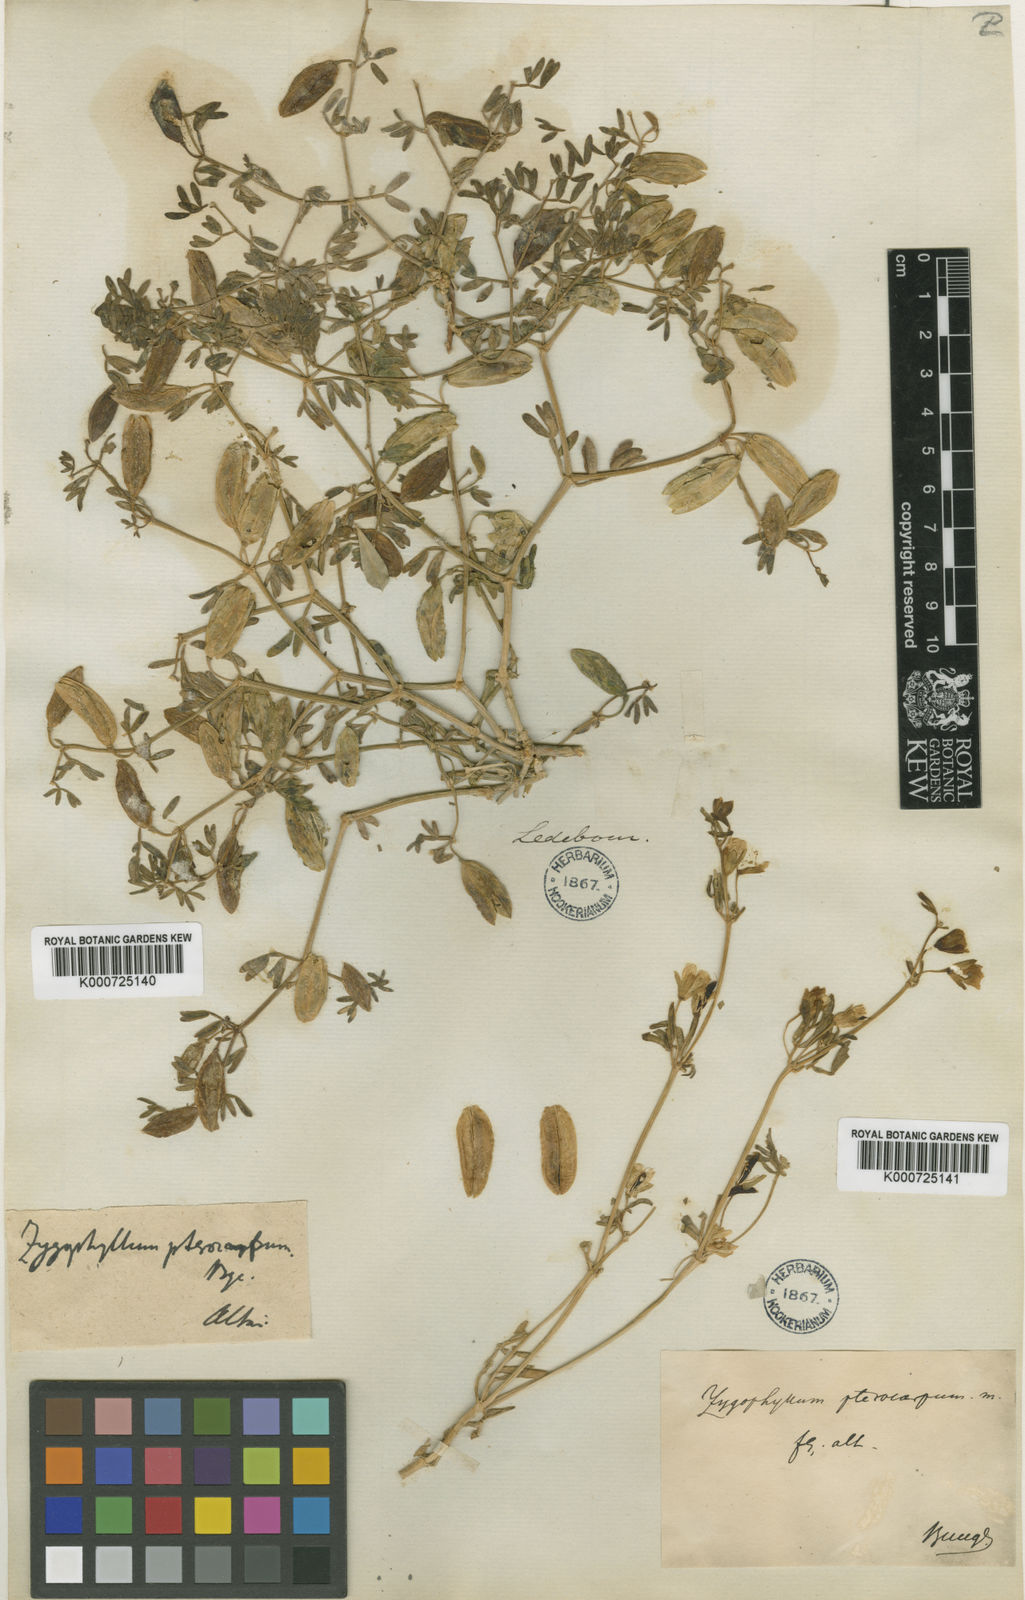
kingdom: Plantae
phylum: Tracheophyta
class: Magnoliopsida
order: Zygophyllales
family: Zygophyllaceae
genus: Zygophyllum
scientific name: Zygophyllum pterocarpum
